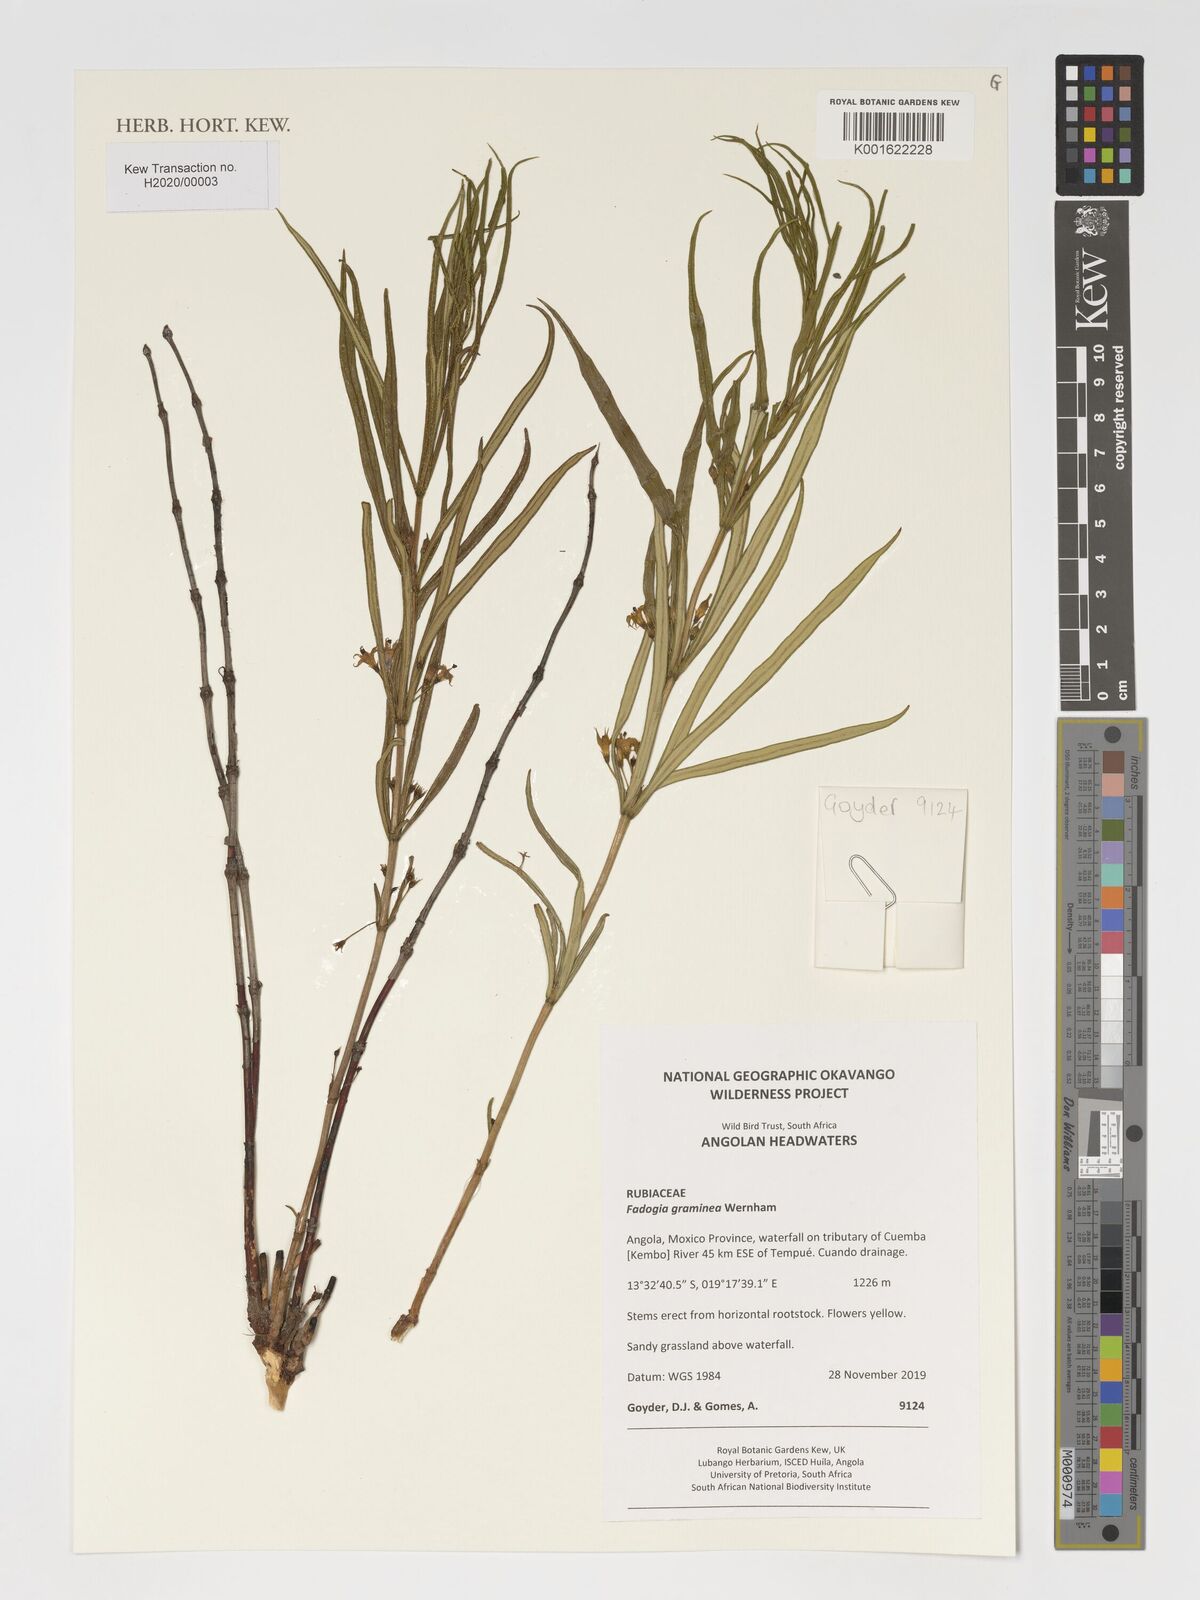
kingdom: Plantae
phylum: Tracheophyta
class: Magnoliopsida
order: Gentianales
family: Rubiaceae
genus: Fadogia
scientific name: Fadogia graminea
